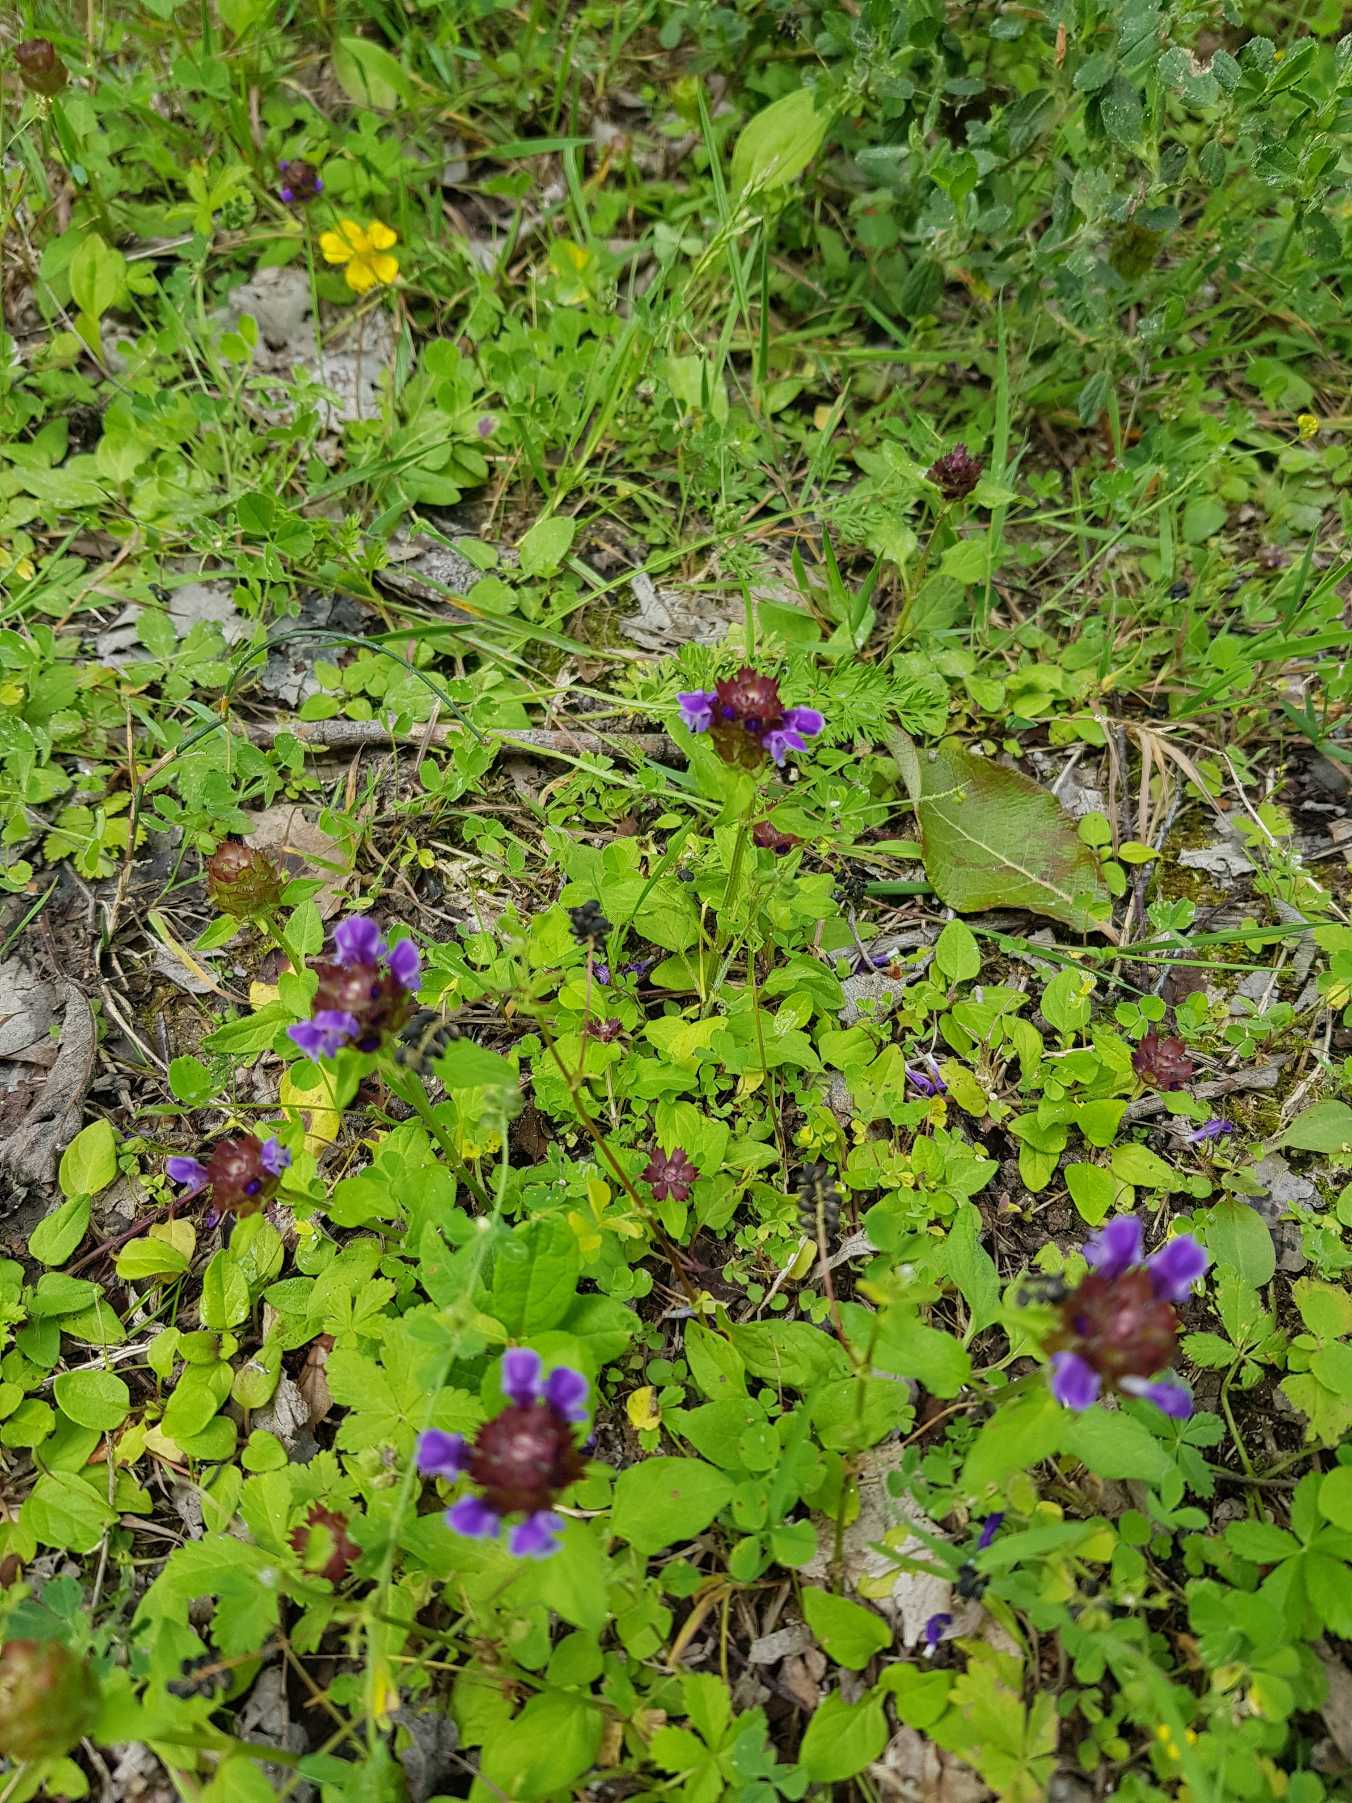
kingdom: Plantae
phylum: Tracheophyta
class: Magnoliopsida
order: Lamiales
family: Lamiaceae
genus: Prunella
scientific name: Prunella vulgaris
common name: Almindelig brunelle
